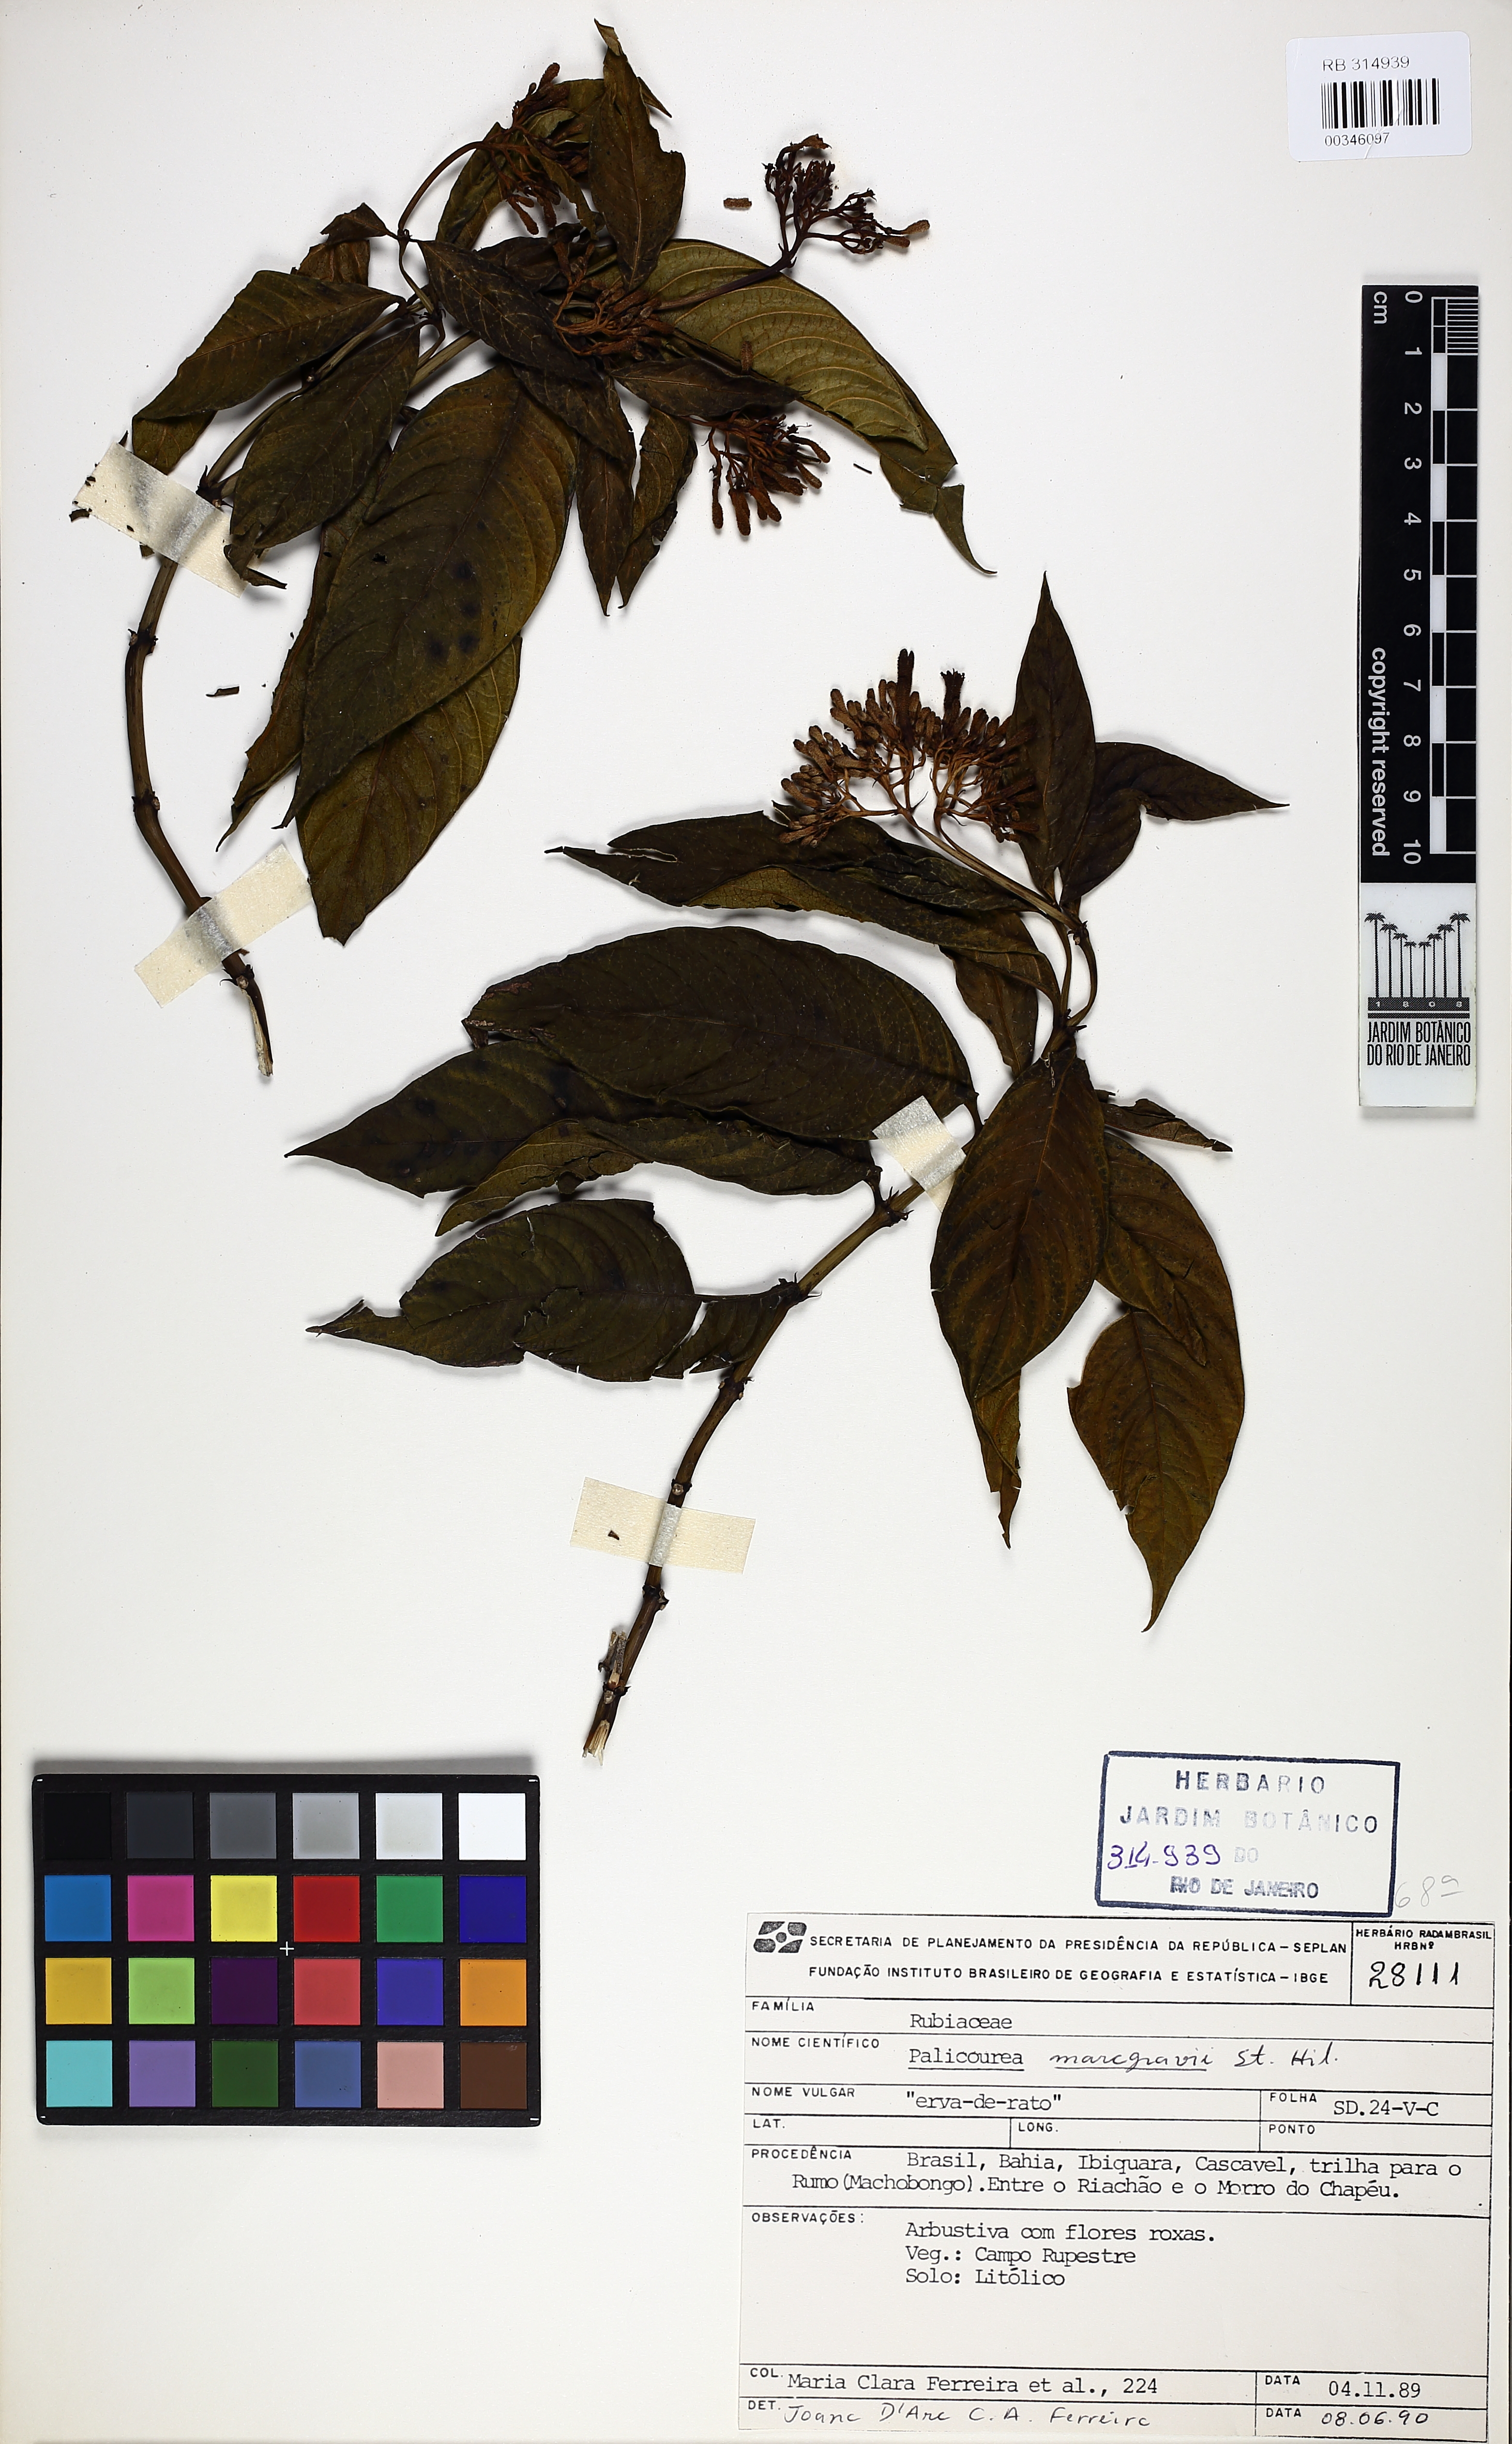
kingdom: Plantae
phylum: Tracheophyta
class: Magnoliopsida
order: Gentianales
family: Rubiaceae
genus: Palicourea
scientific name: Palicourea marcgravii
